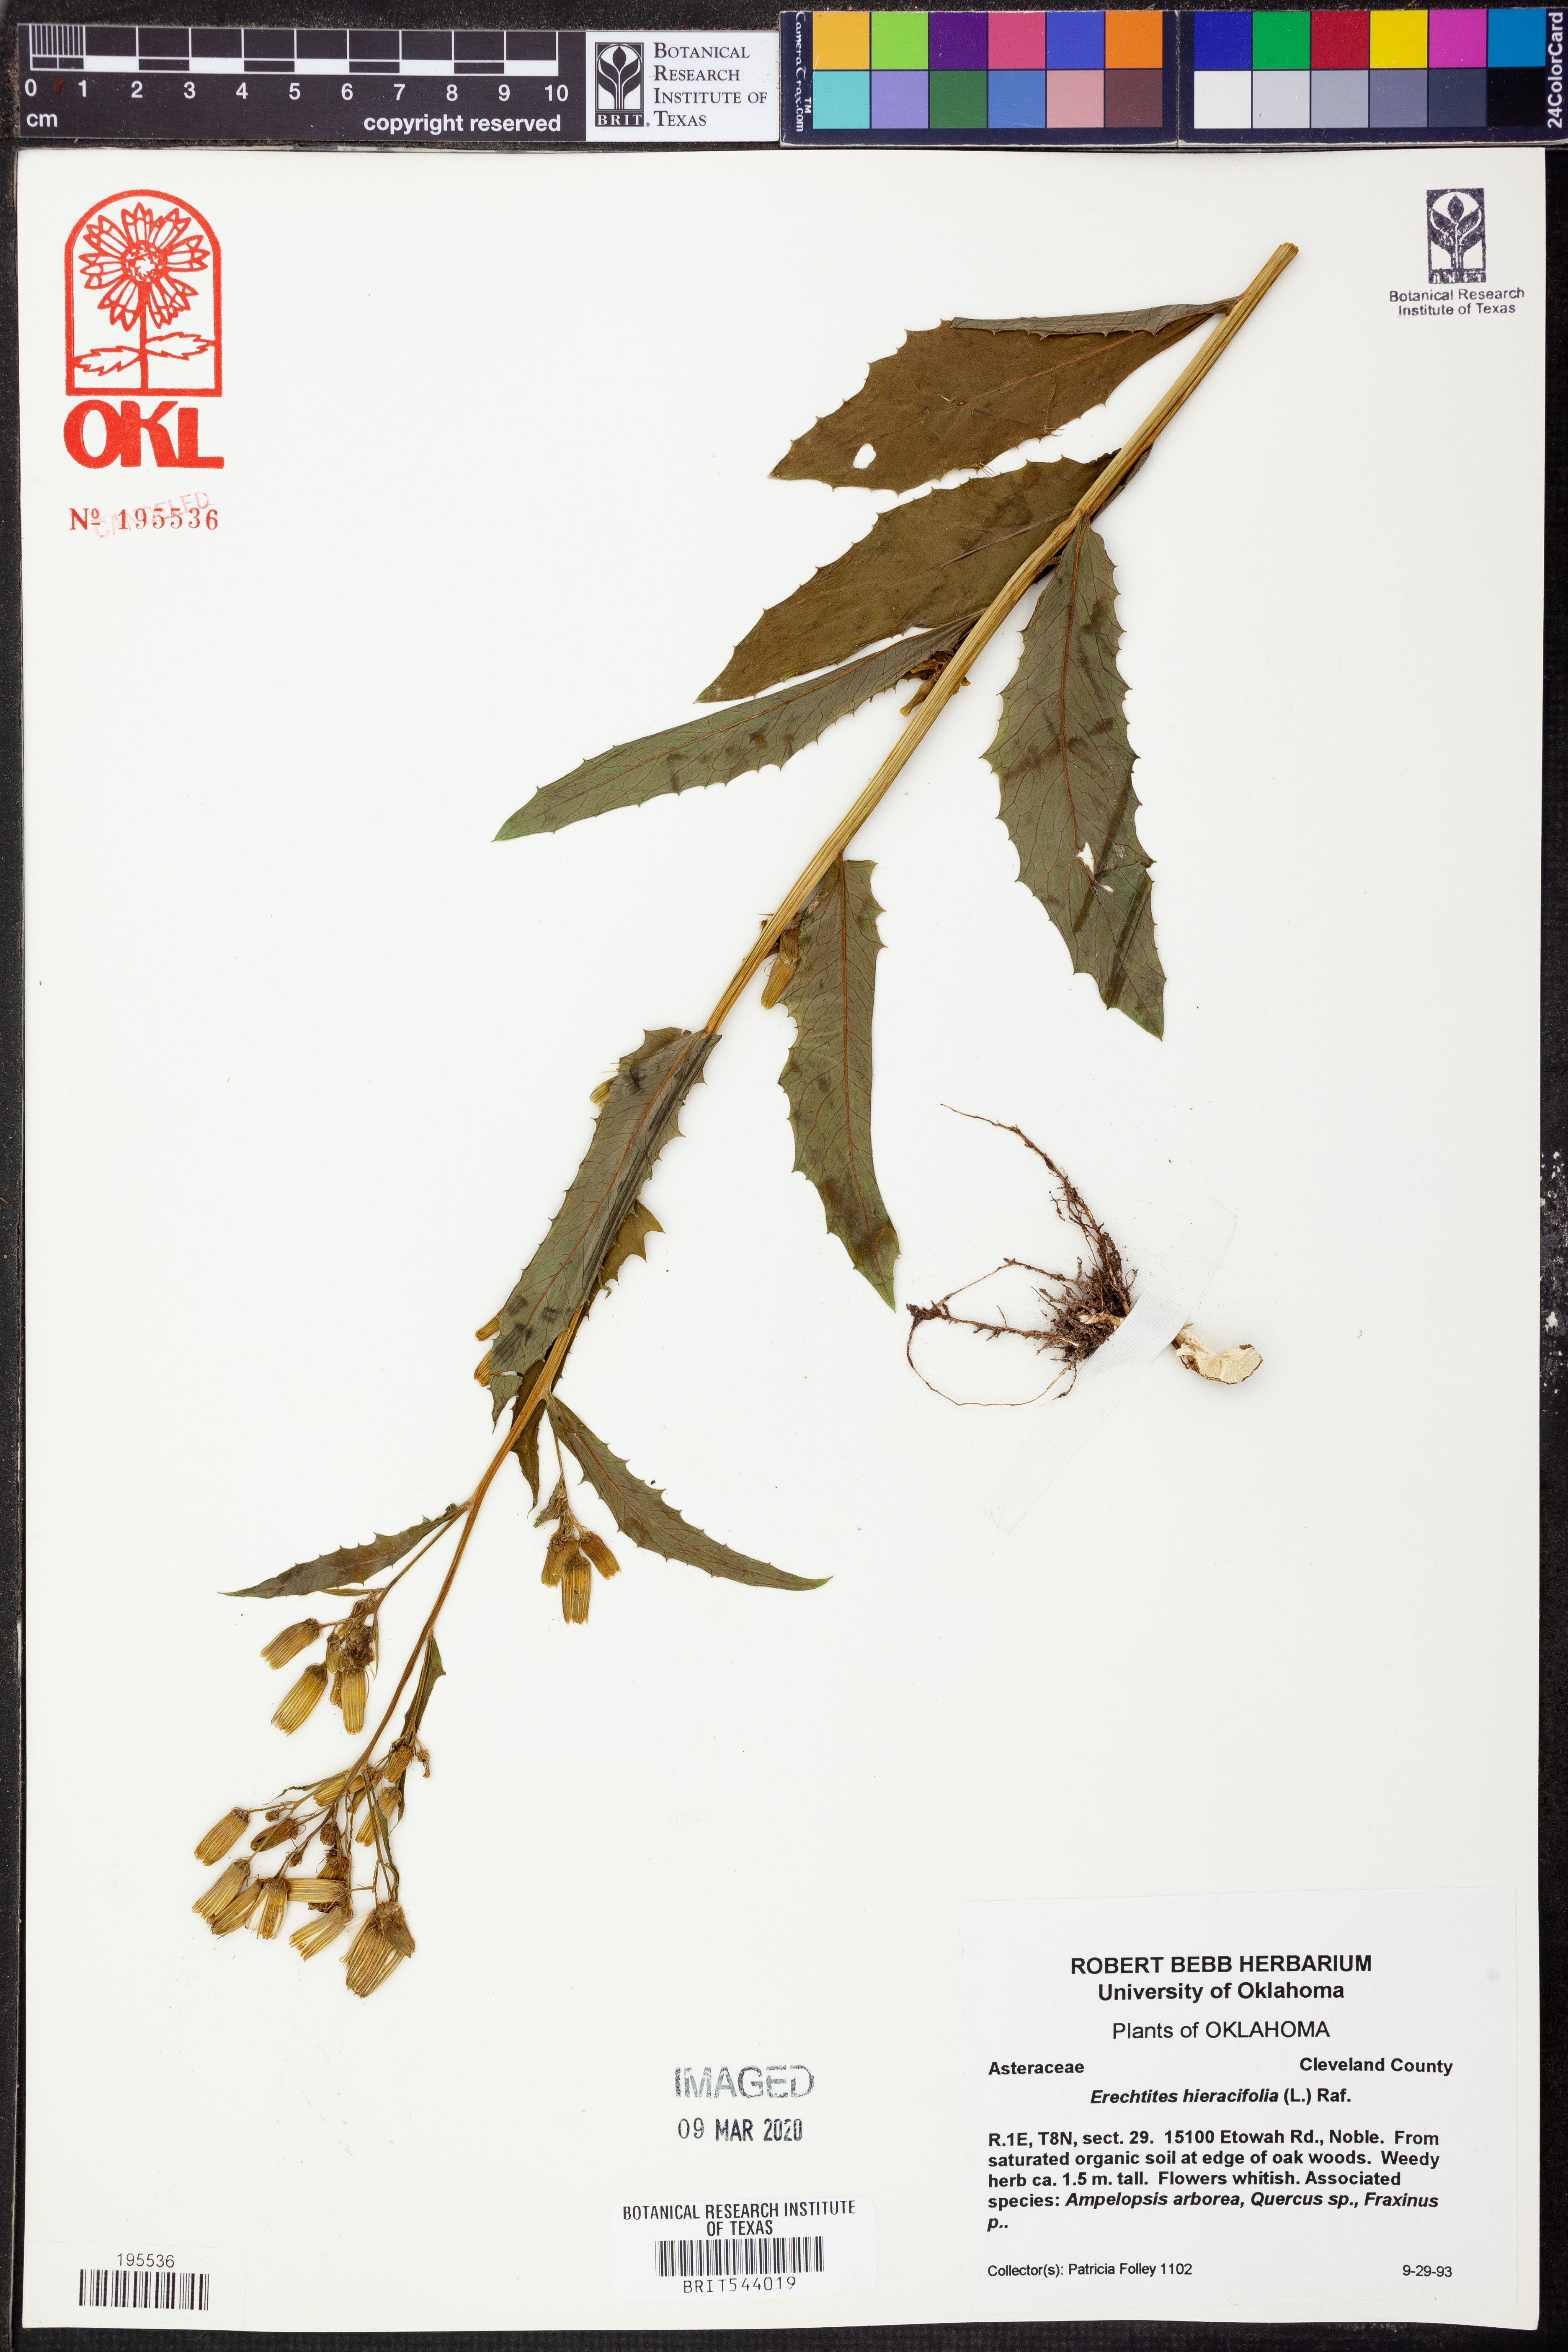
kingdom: Plantae
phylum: Tracheophyta
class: Magnoliopsida
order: Asterales
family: Asteraceae
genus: Erechtites
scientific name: Erechtites hieraciifolius
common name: American burnweed
